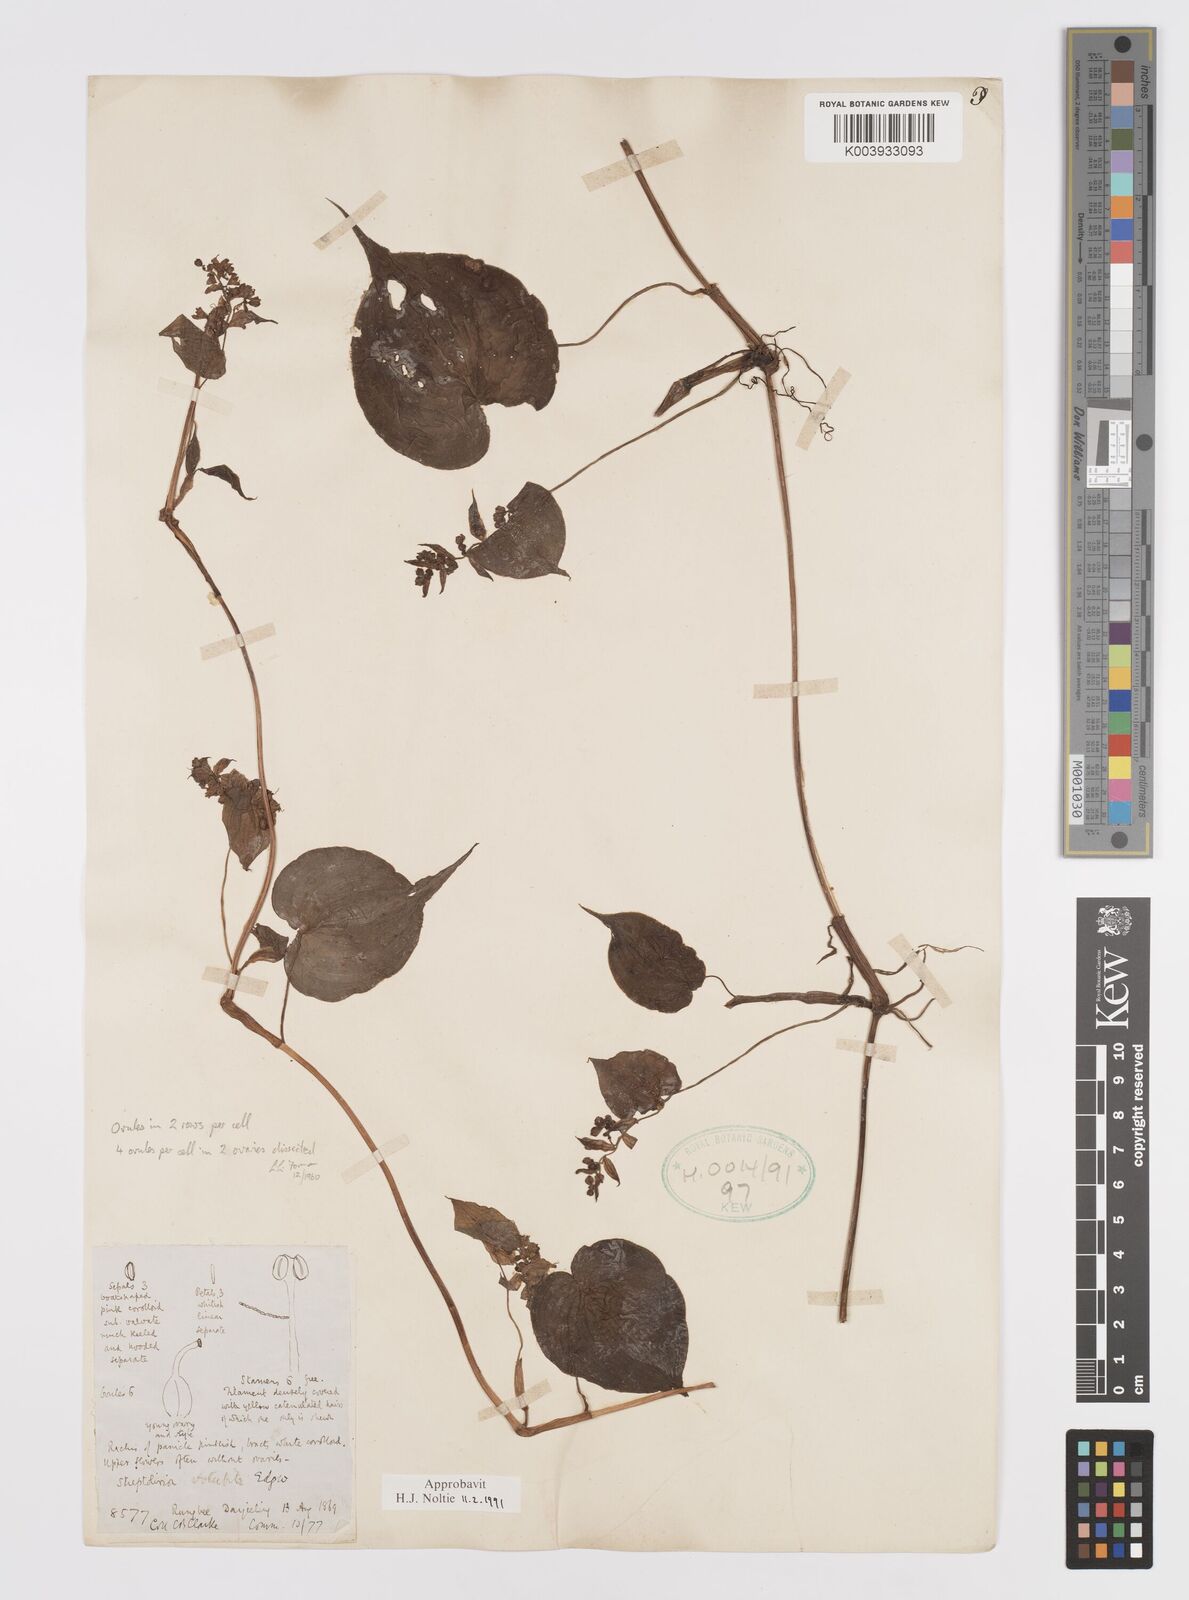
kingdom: Plantae
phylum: Tracheophyta
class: Liliopsida
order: Commelinales
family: Commelinaceae
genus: Streptolirion
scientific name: Streptolirion volubile
